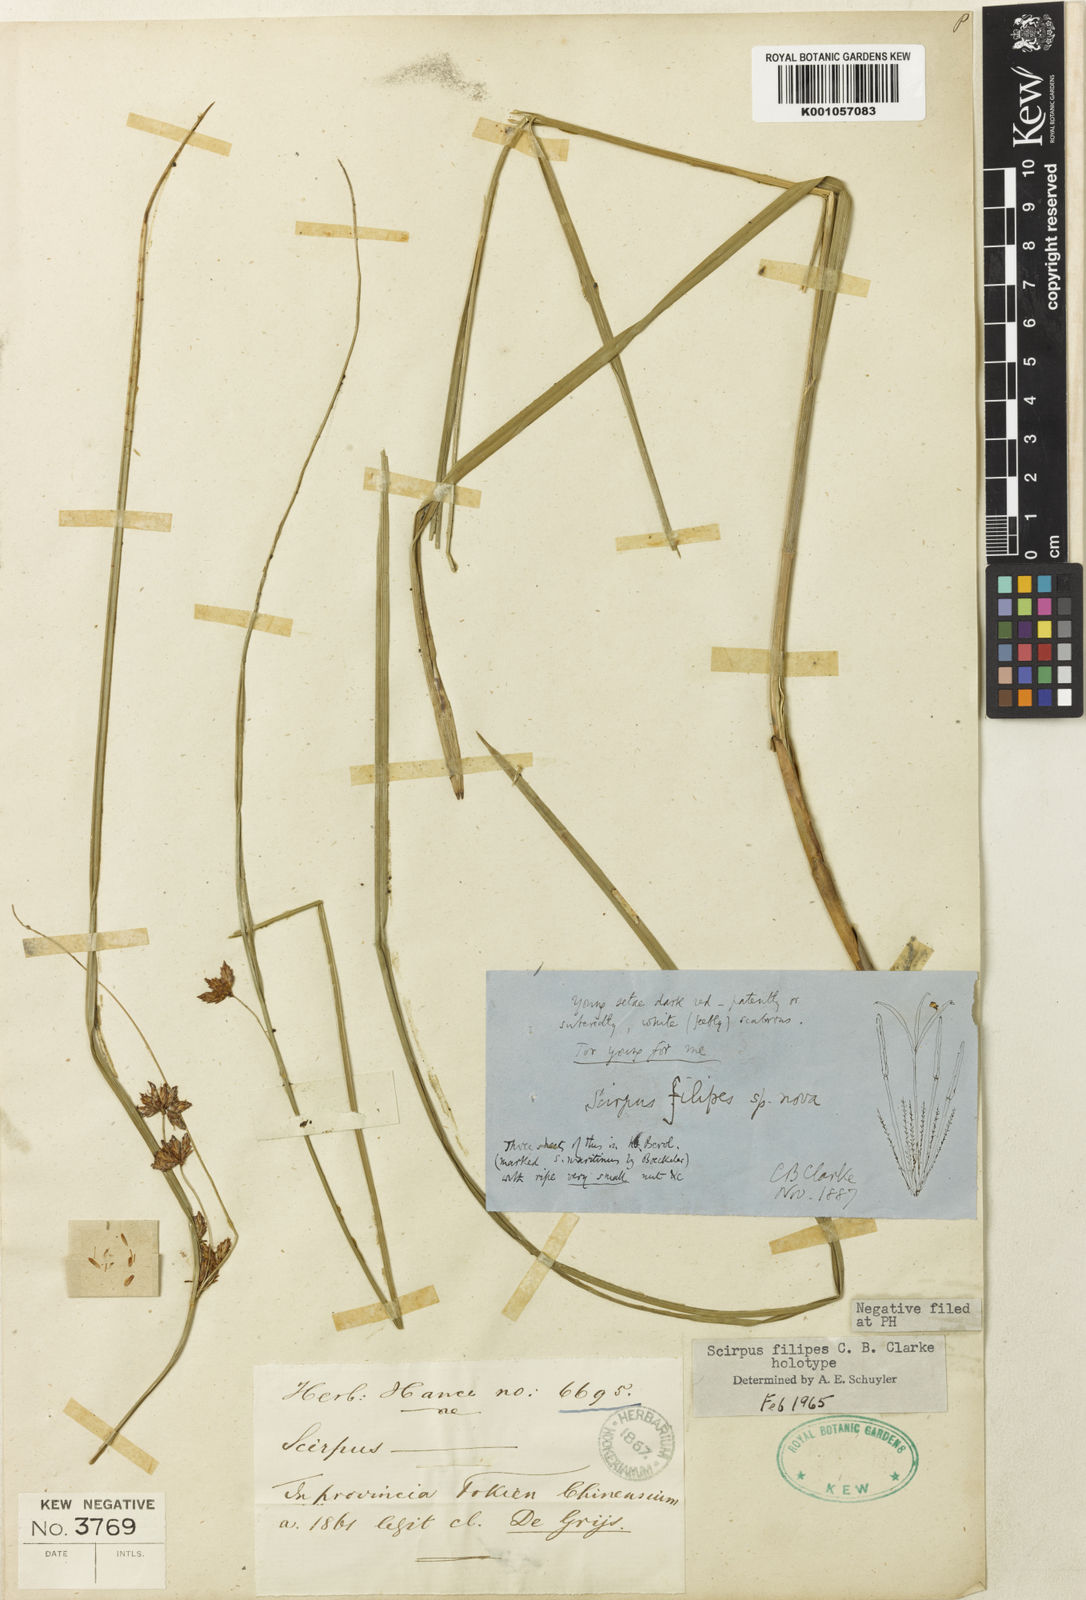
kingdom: Plantae
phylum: Tracheophyta
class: Liliopsida
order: Poales
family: Cyperaceae
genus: Trichophorum
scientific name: Trichophorum filipes
